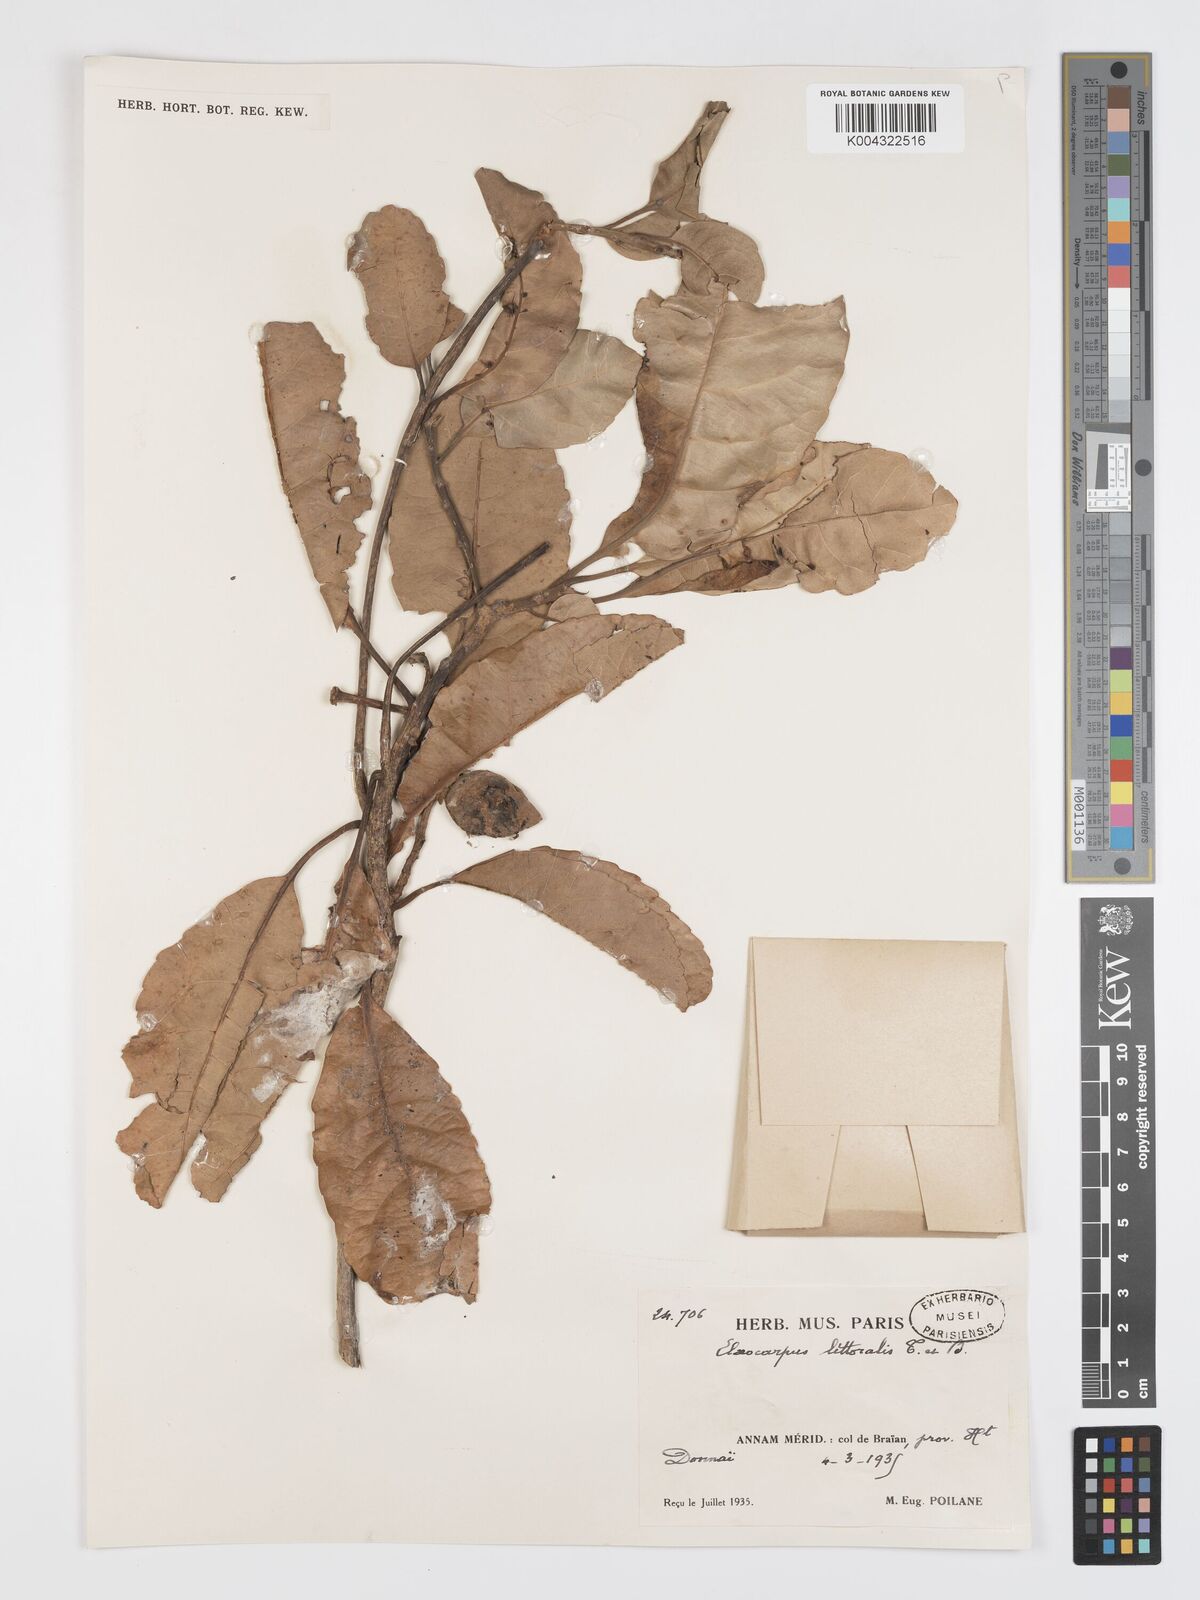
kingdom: Plantae
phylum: Tracheophyta
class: Magnoliopsida
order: Oxalidales
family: Elaeocarpaceae
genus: Elaeocarpus
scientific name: Elaeocarpus macrocerus
